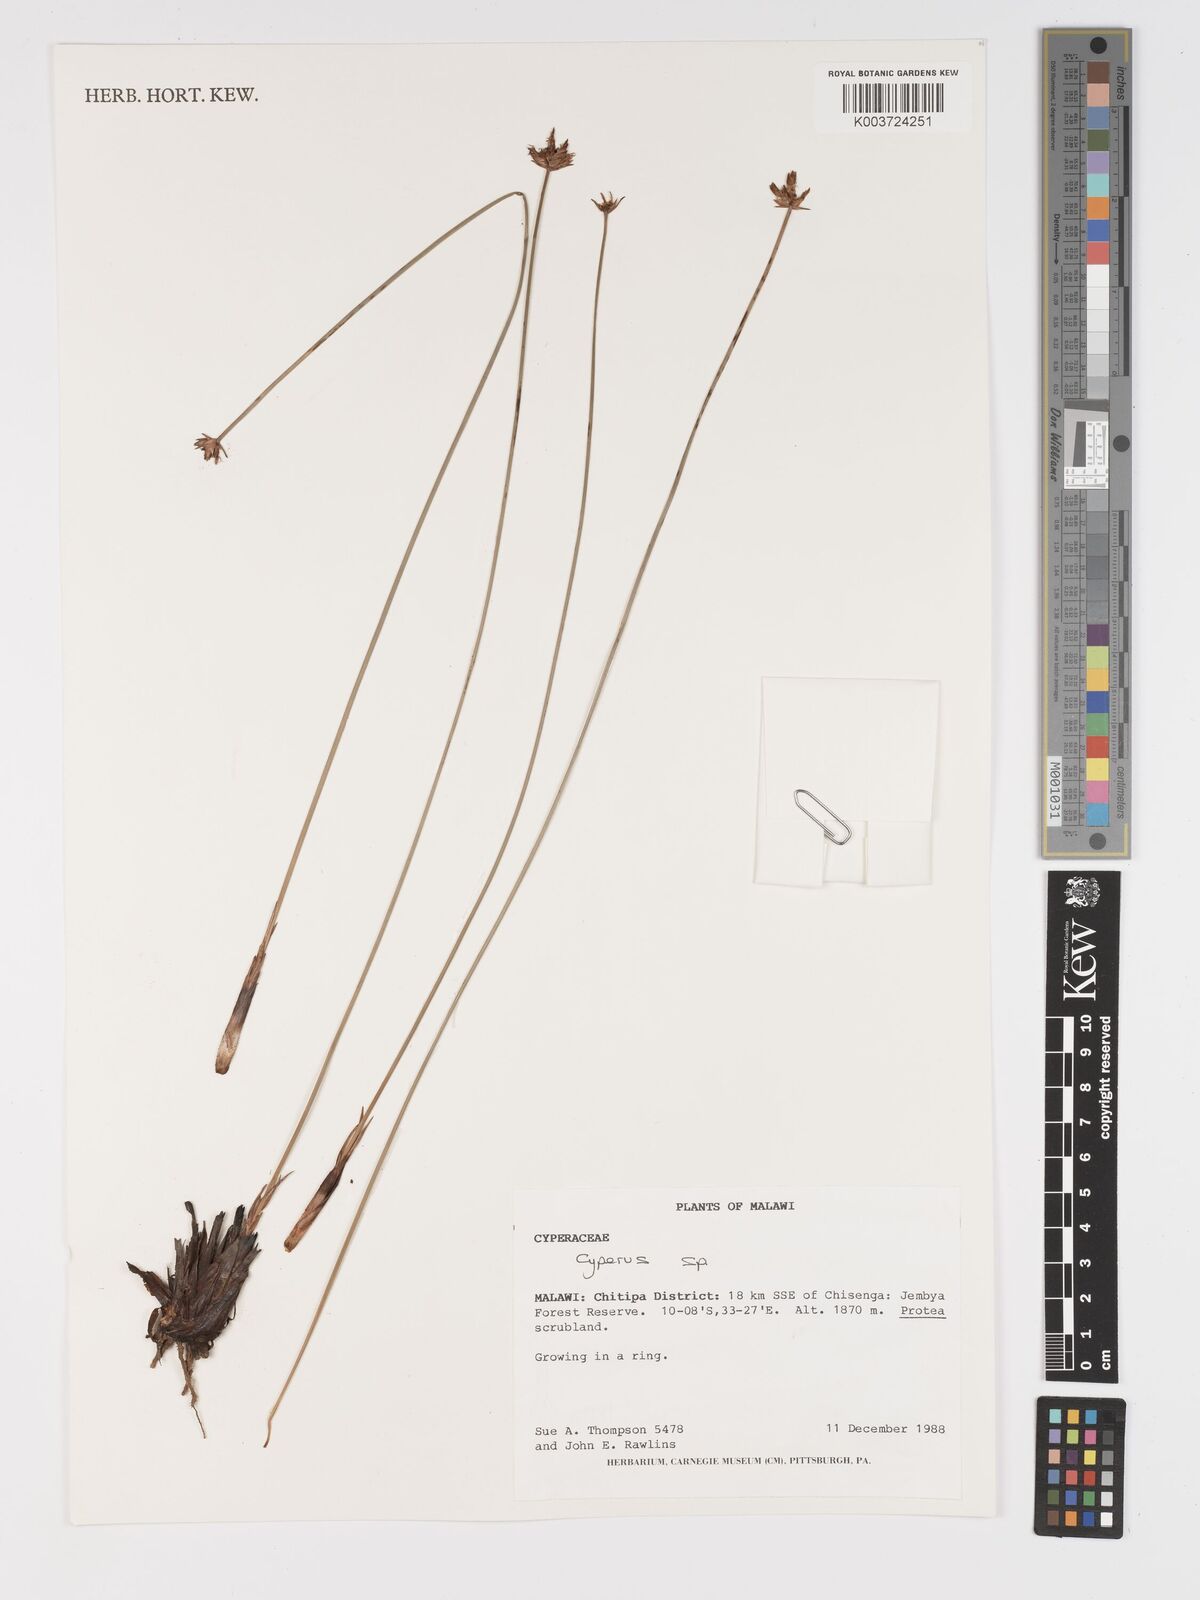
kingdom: Plantae
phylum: Tracheophyta
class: Liliopsida
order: Poales
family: Cyperaceae
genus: Cyperus
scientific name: Cyperus
